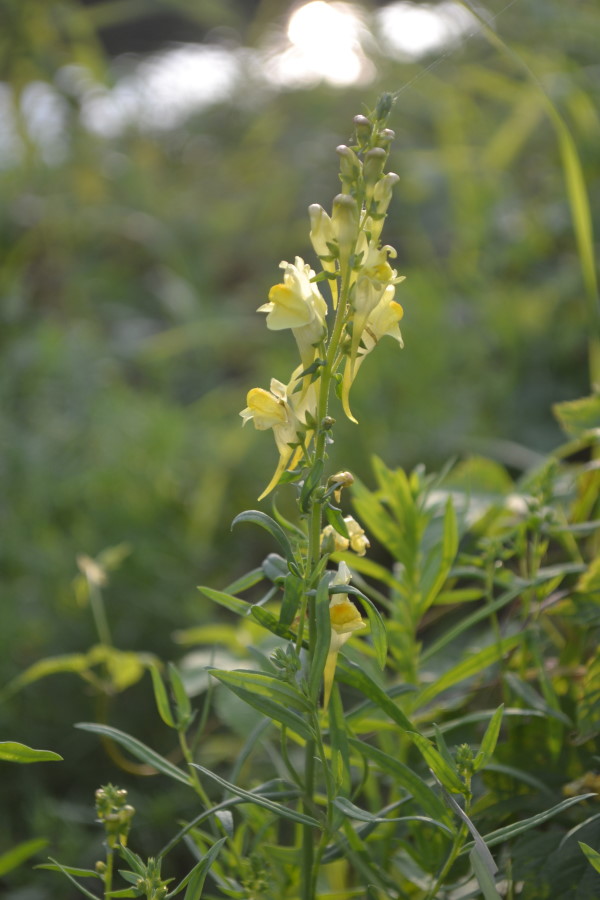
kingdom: Plantae
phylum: Tracheophyta
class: Magnoliopsida
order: Lamiales
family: Plantaginaceae
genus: Linaria
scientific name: Linaria vulgaris
